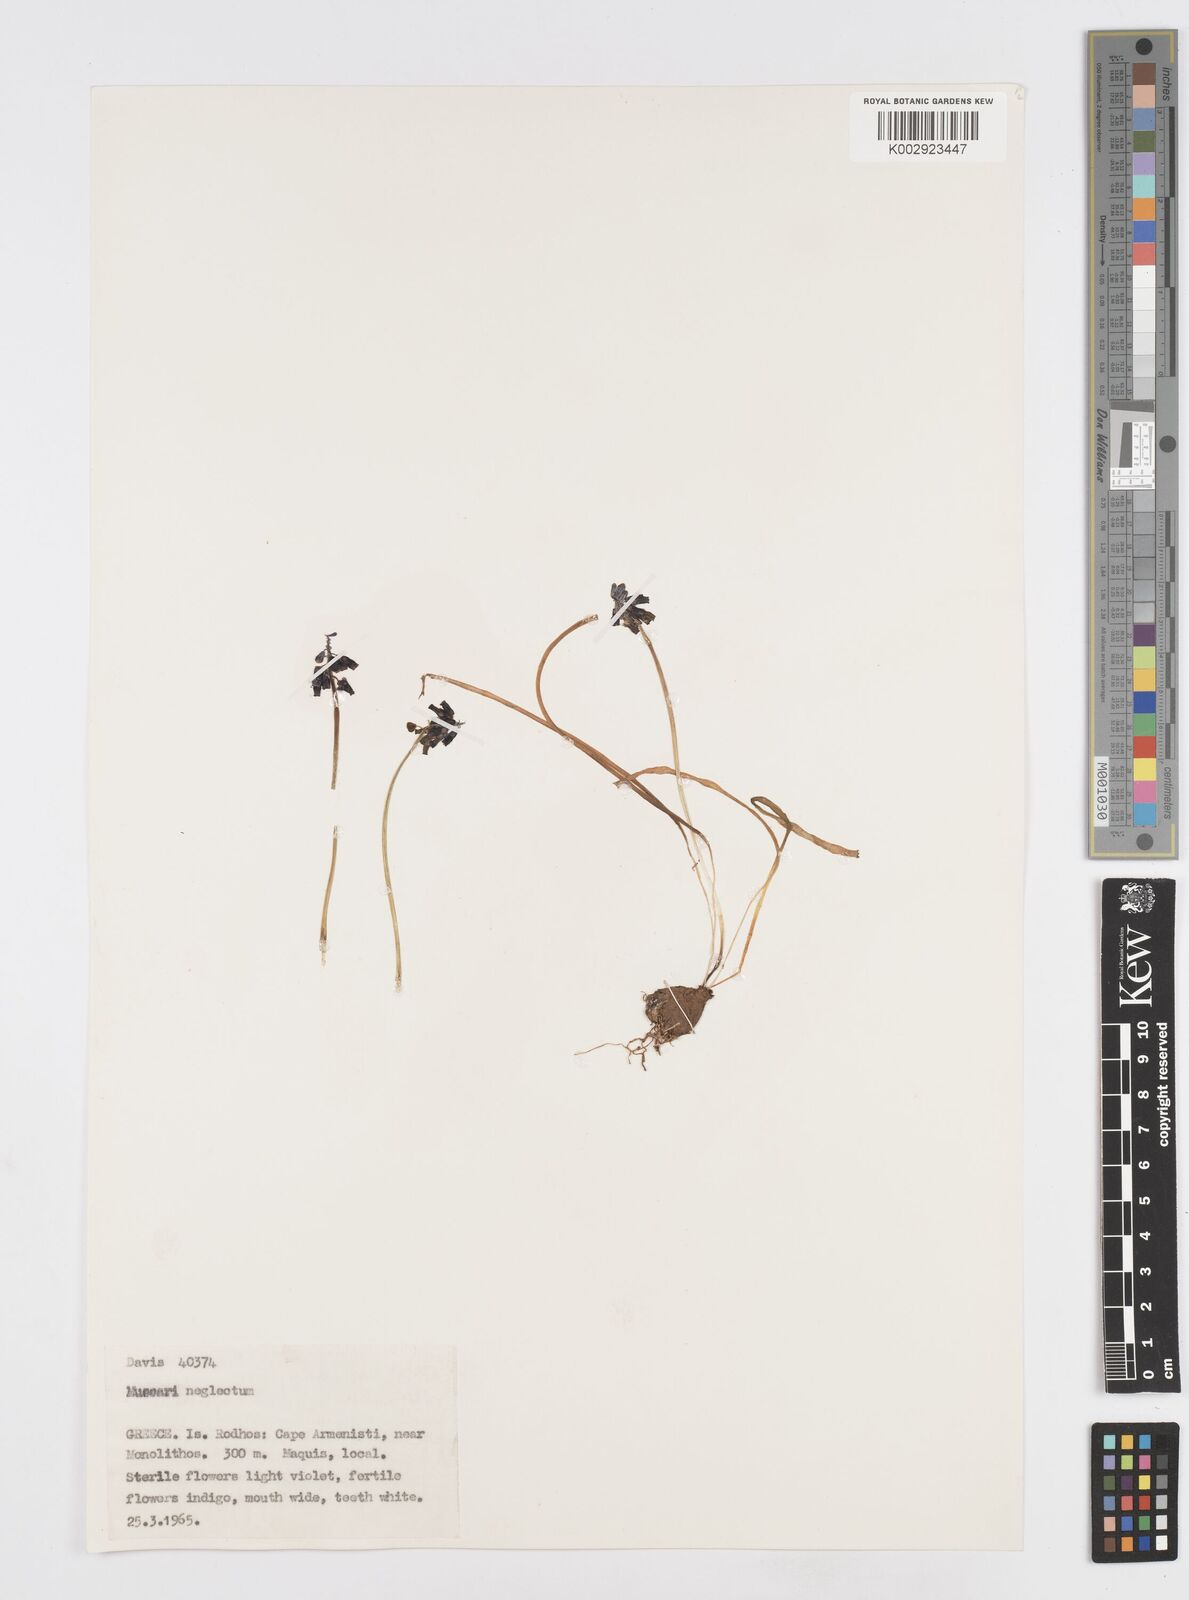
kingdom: Plantae
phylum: Tracheophyta
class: Liliopsida
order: Asparagales
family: Asparagaceae
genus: Muscari
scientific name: Muscari neglectum
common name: Grape-hyacinth
